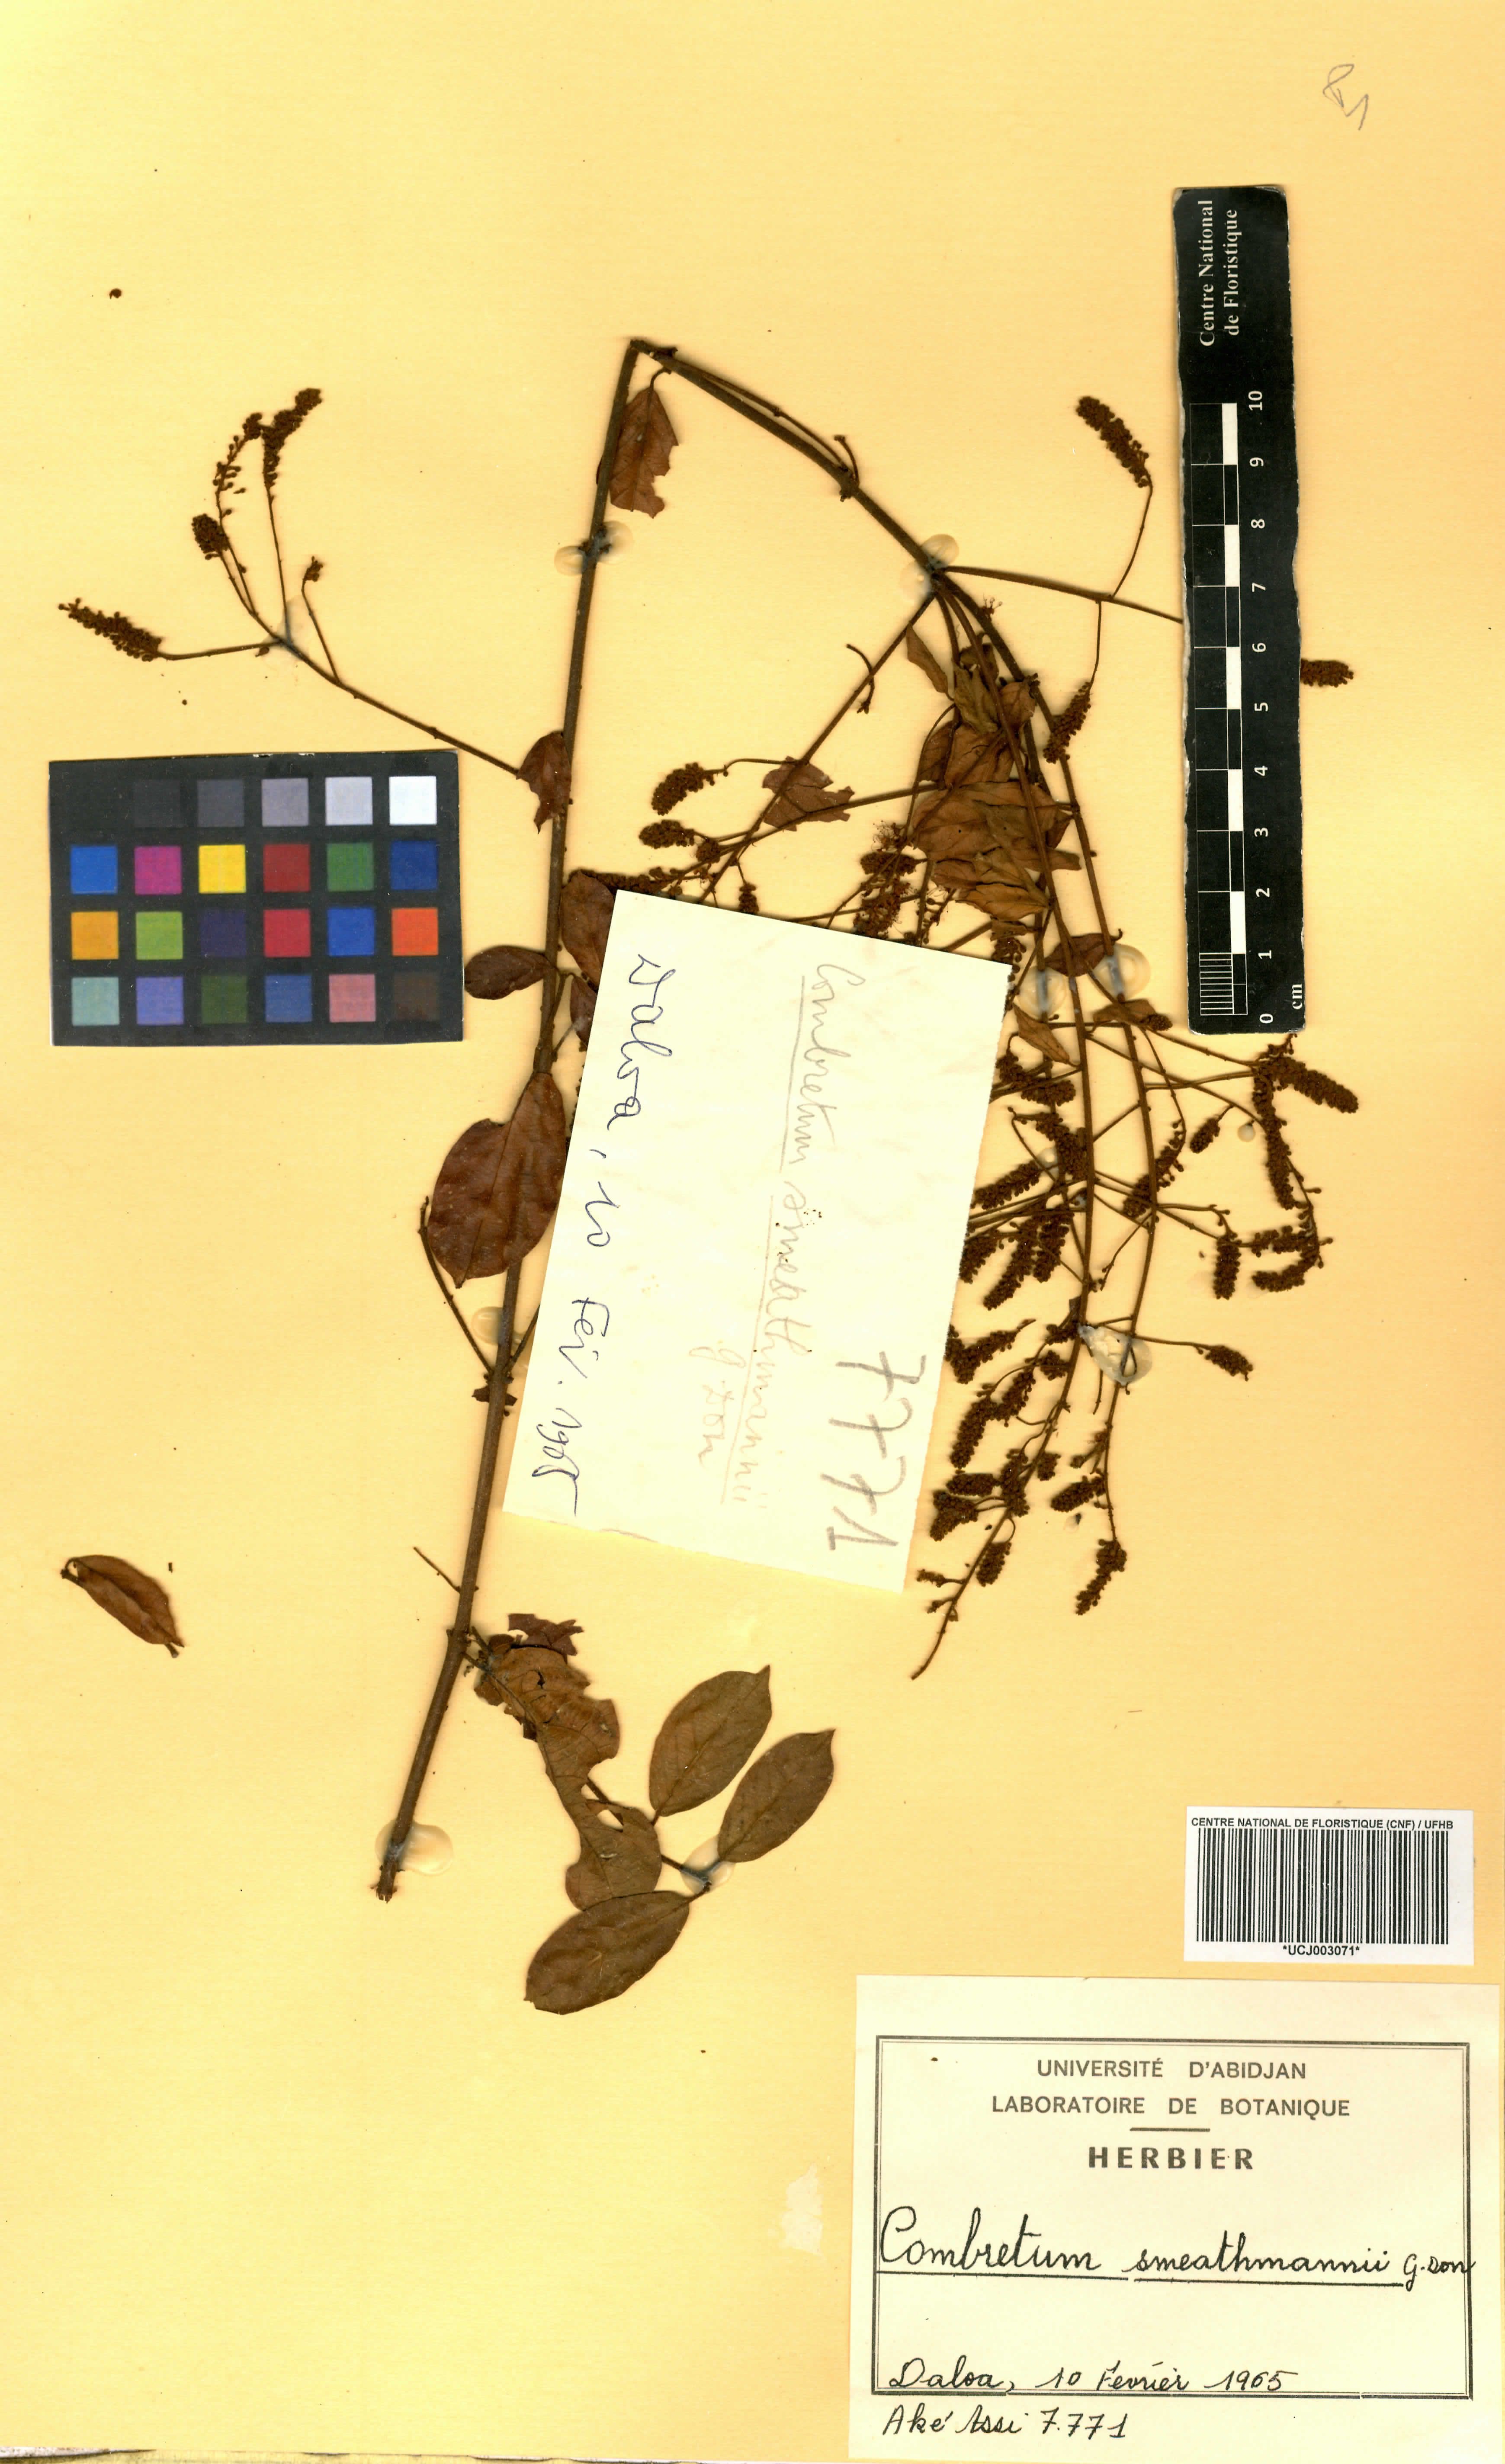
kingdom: Plantae
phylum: Tracheophyta
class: Magnoliopsida
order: Myrtales
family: Combretaceae
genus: Combretum
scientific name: Combretum mucronatum
